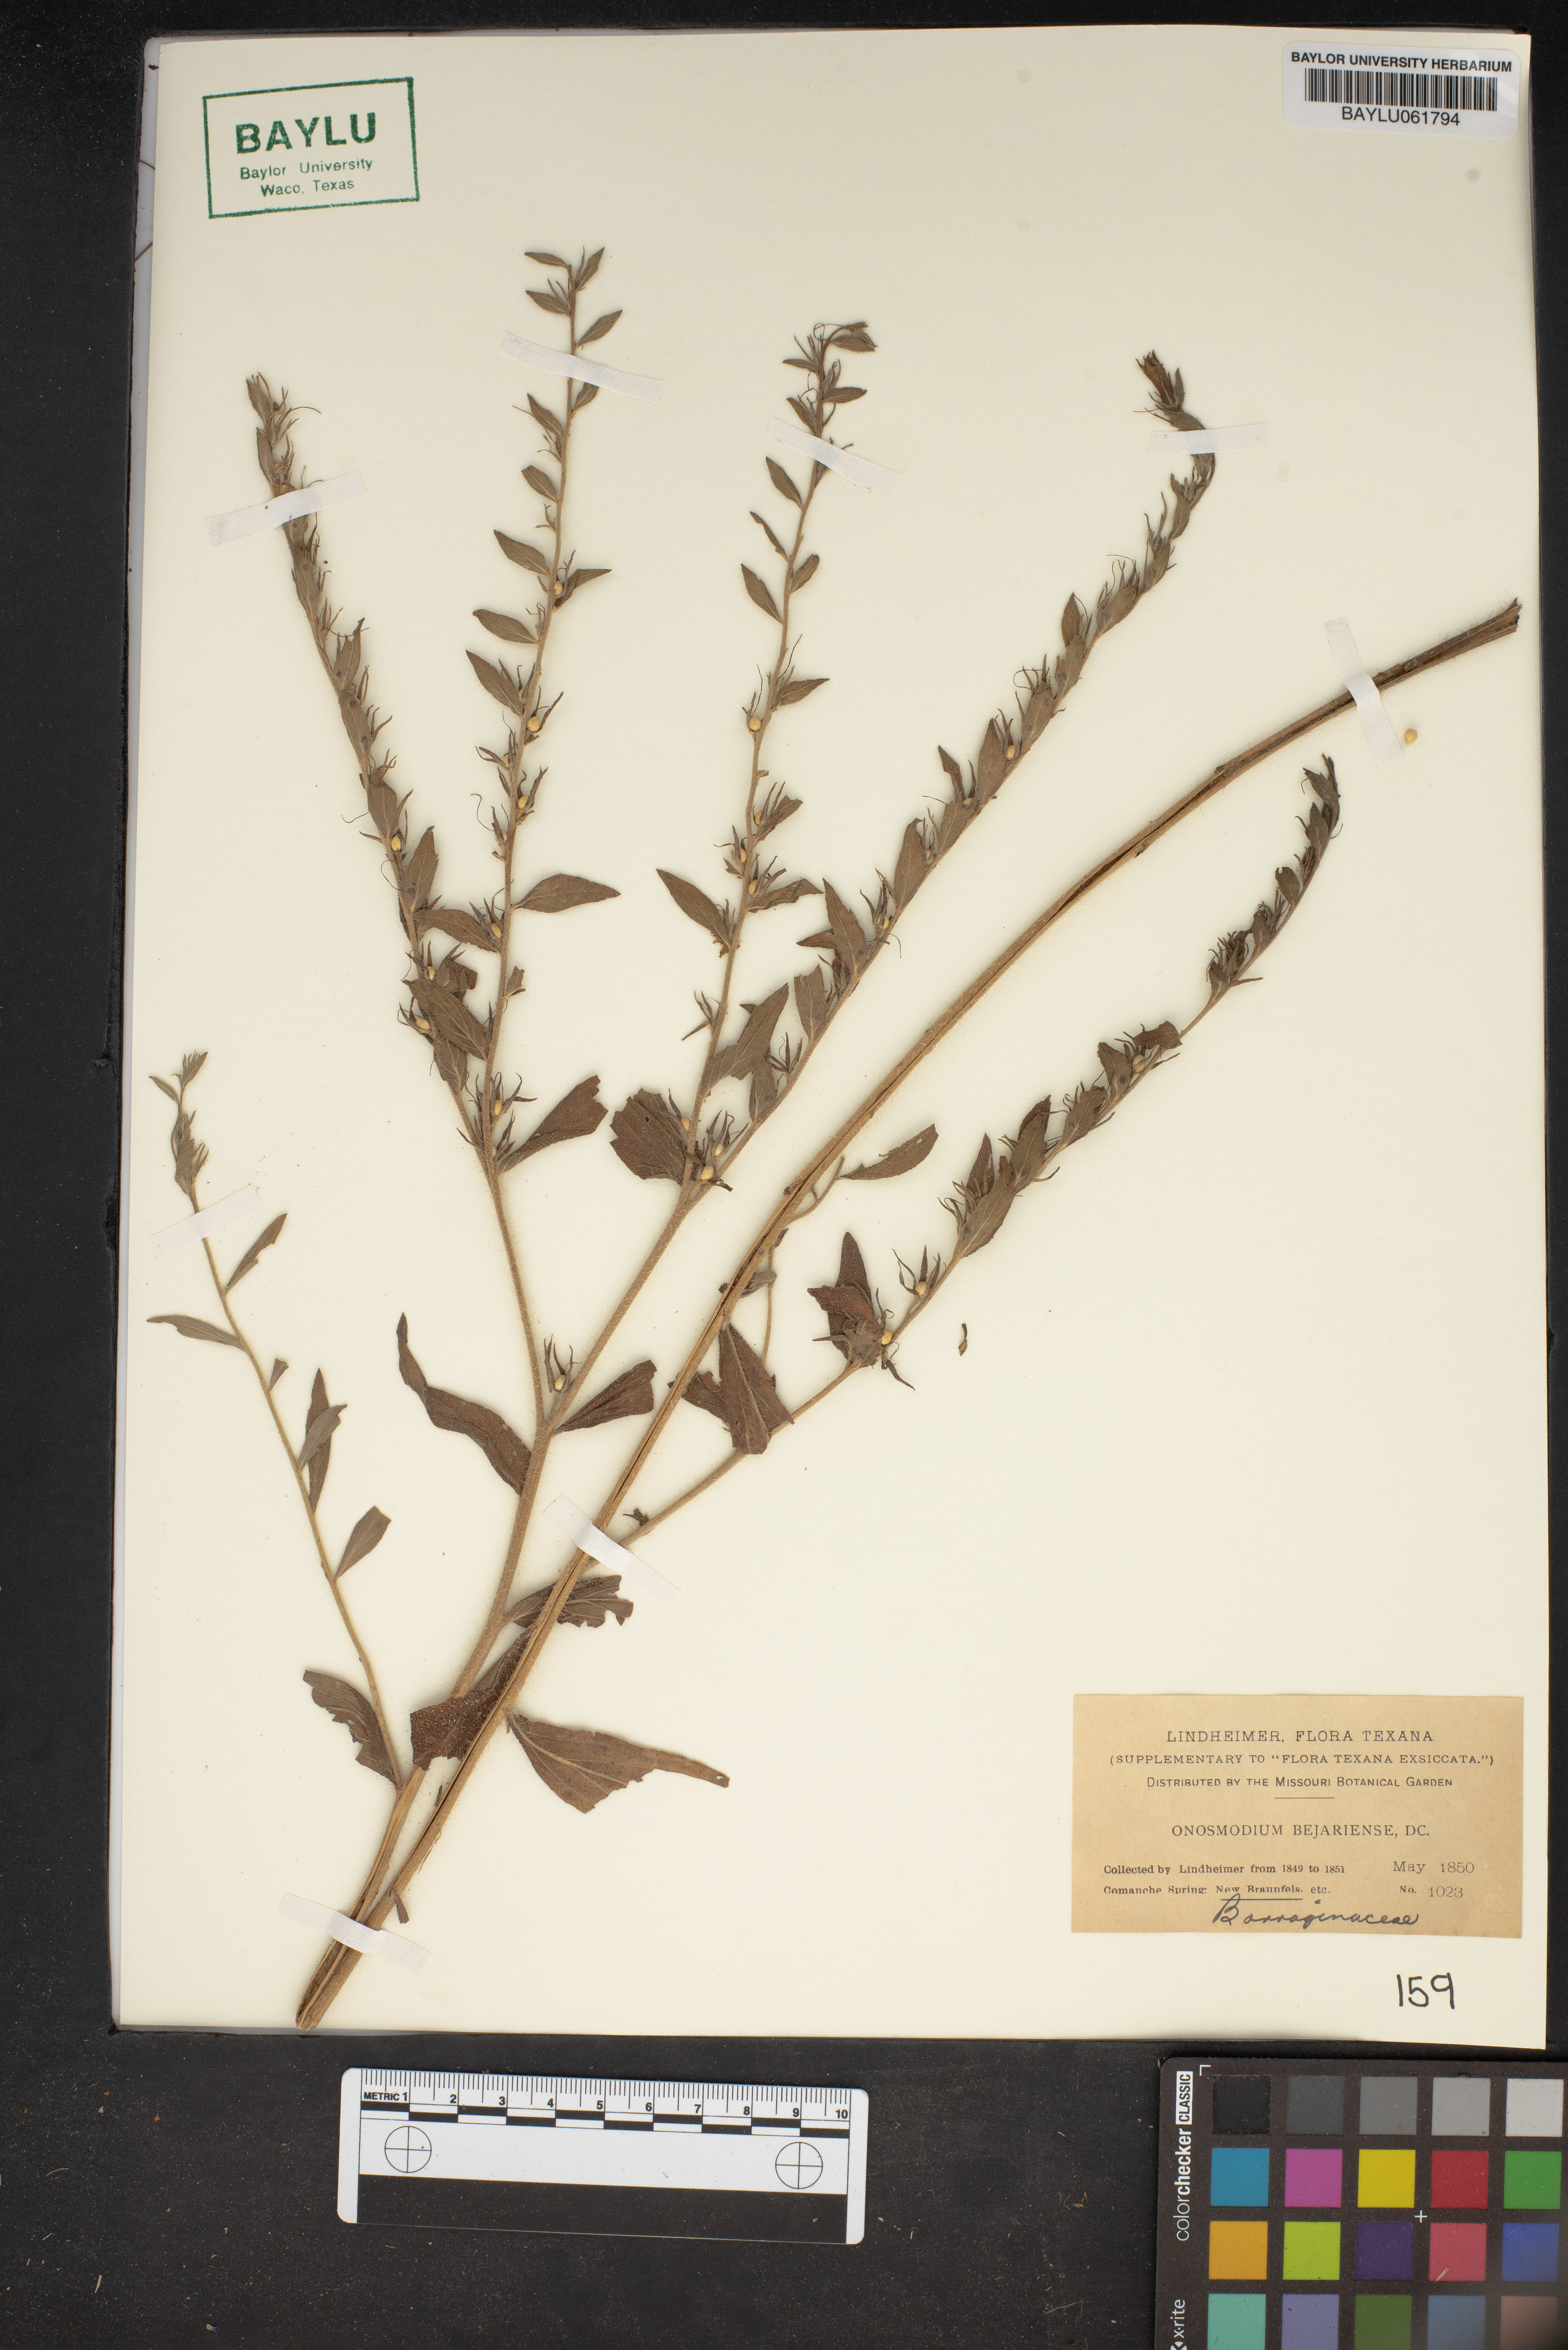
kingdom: Plantae
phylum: Tracheophyta
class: Magnoliopsida
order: Boraginales
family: Boraginaceae
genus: Lithospermum
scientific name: Lithospermum molle
